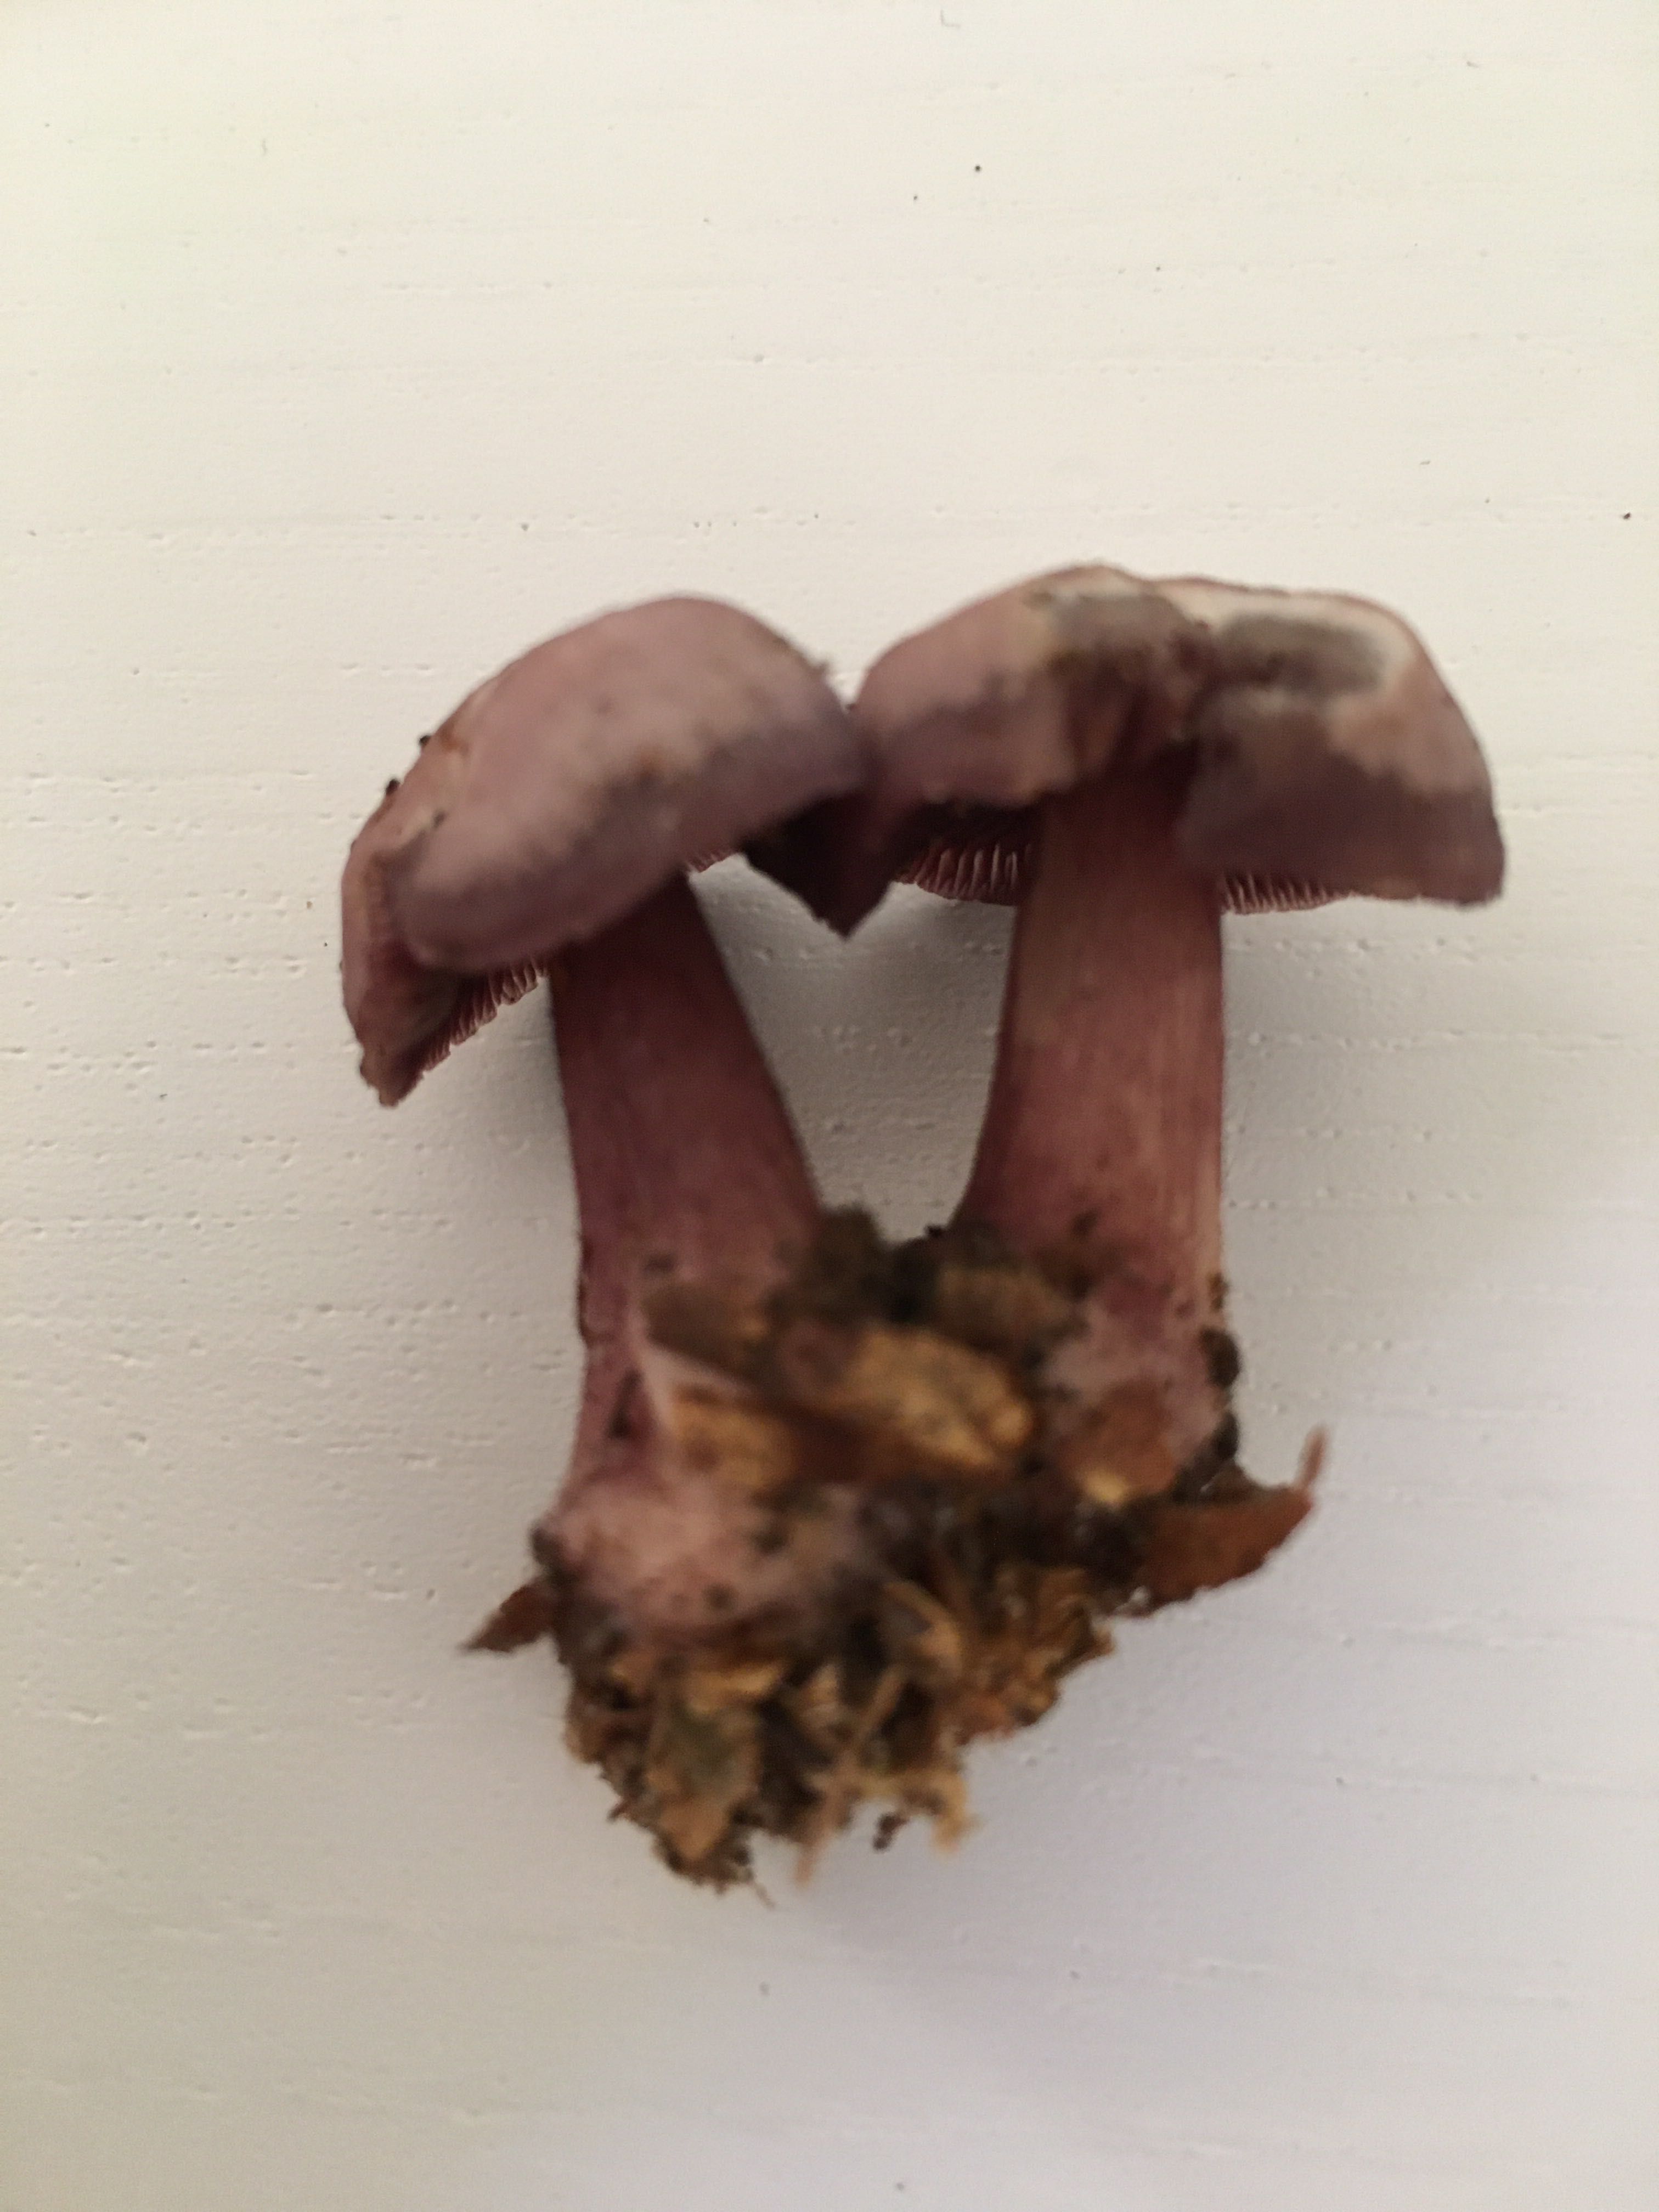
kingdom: Fungi
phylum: Basidiomycota
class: Agaricomycetes
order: Agaricales
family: Mycenaceae
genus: Mycena
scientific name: Mycena pelianthina
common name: mørkbladet huesvamp
